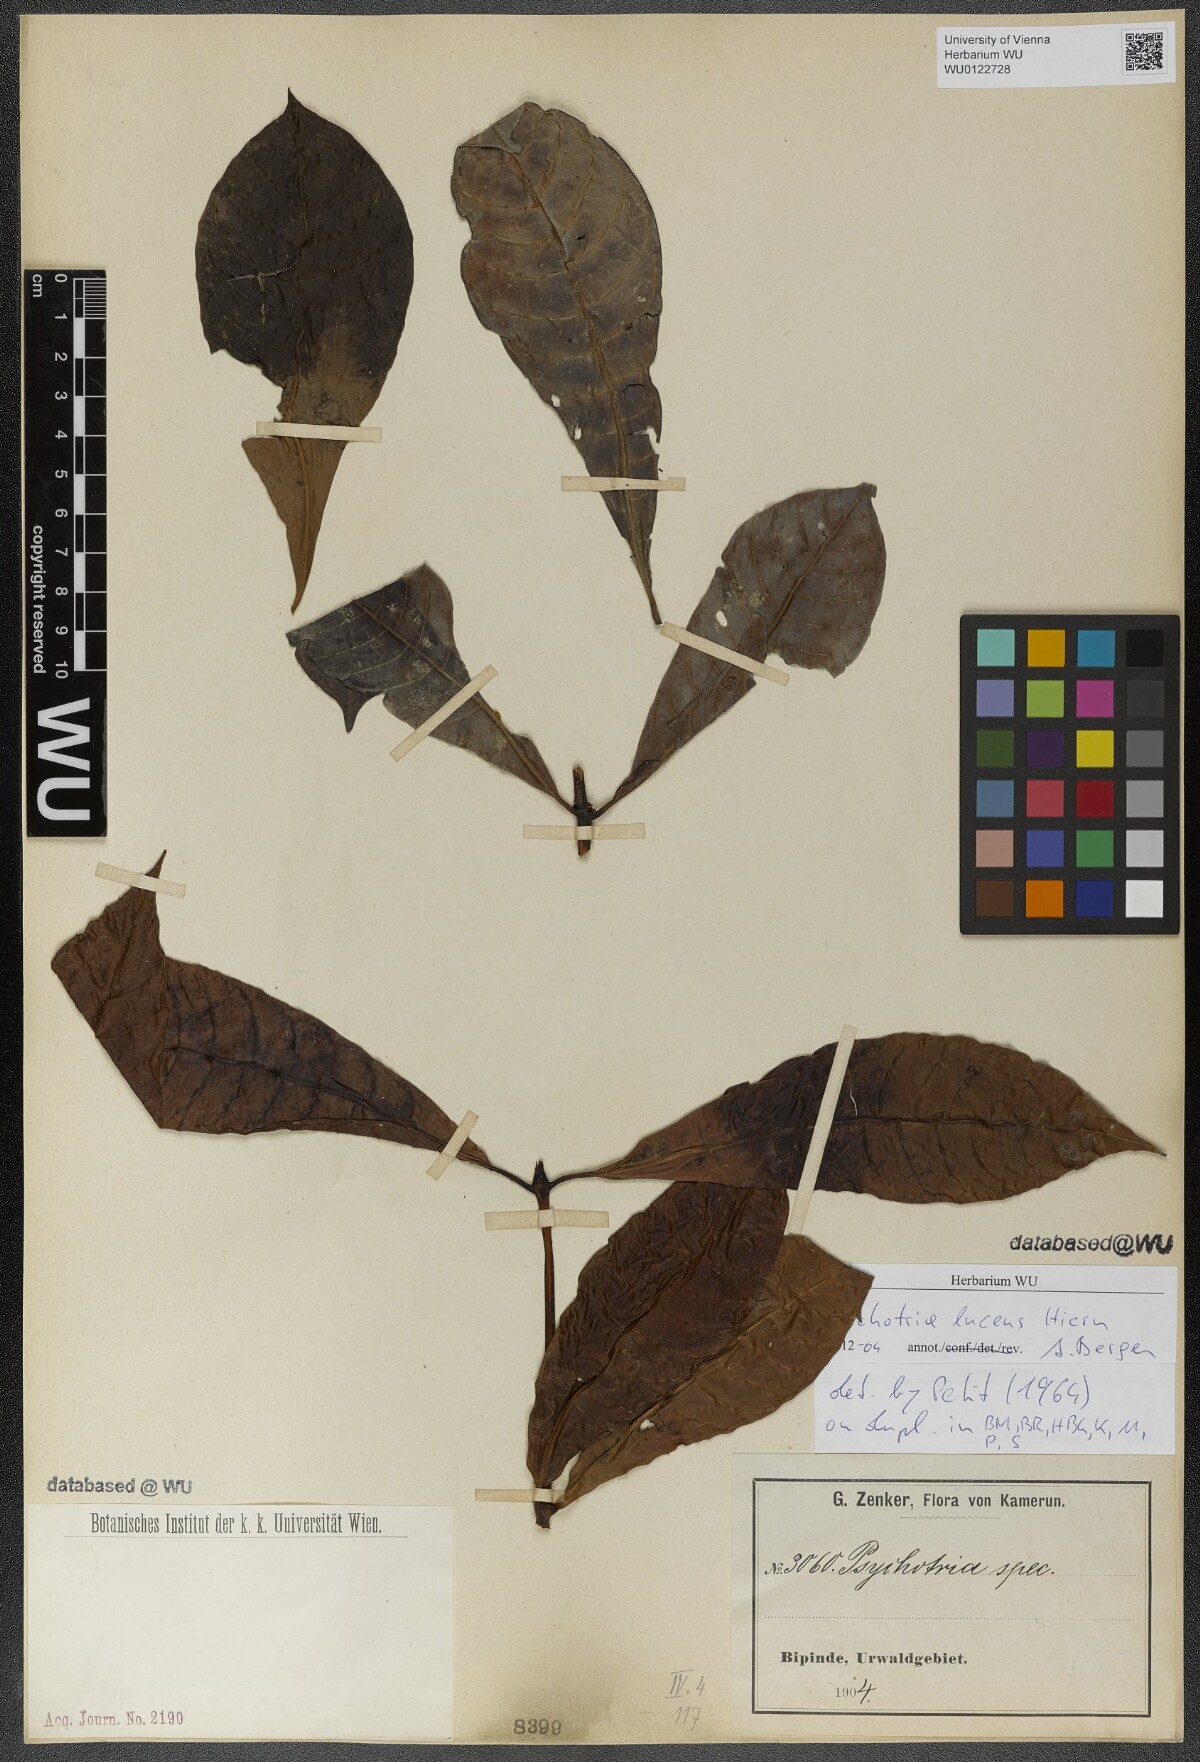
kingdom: Plantae
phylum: Tracheophyta
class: Magnoliopsida
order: Gentianales
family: Rubiaceae
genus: Psychotria
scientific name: Psychotria lucens
